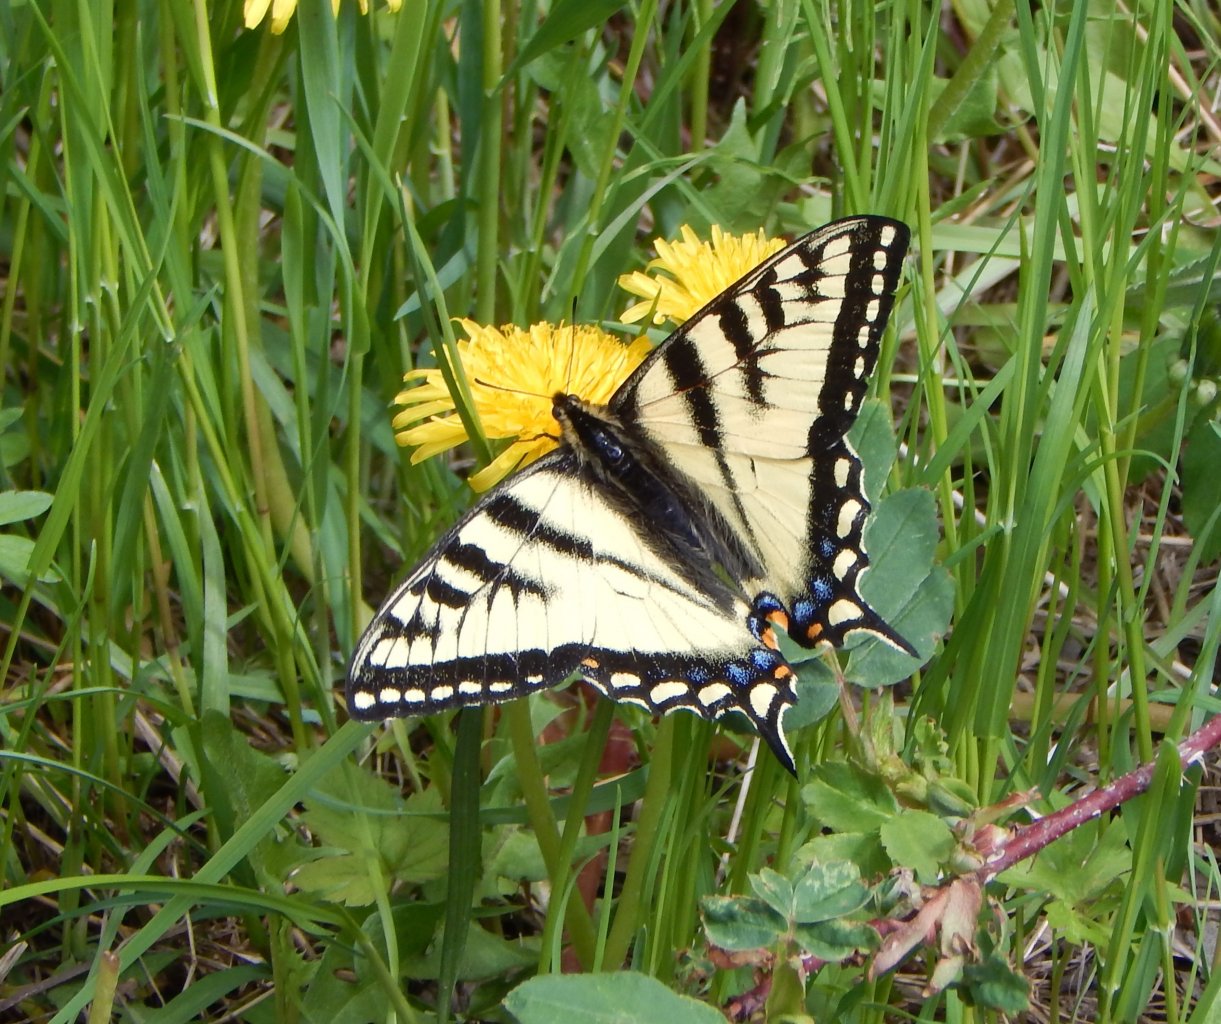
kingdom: Animalia
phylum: Arthropoda
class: Insecta
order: Lepidoptera
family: Papilionidae
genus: Pterourus
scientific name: Pterourus canadensis
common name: Canadian Tiger Swallowtail
